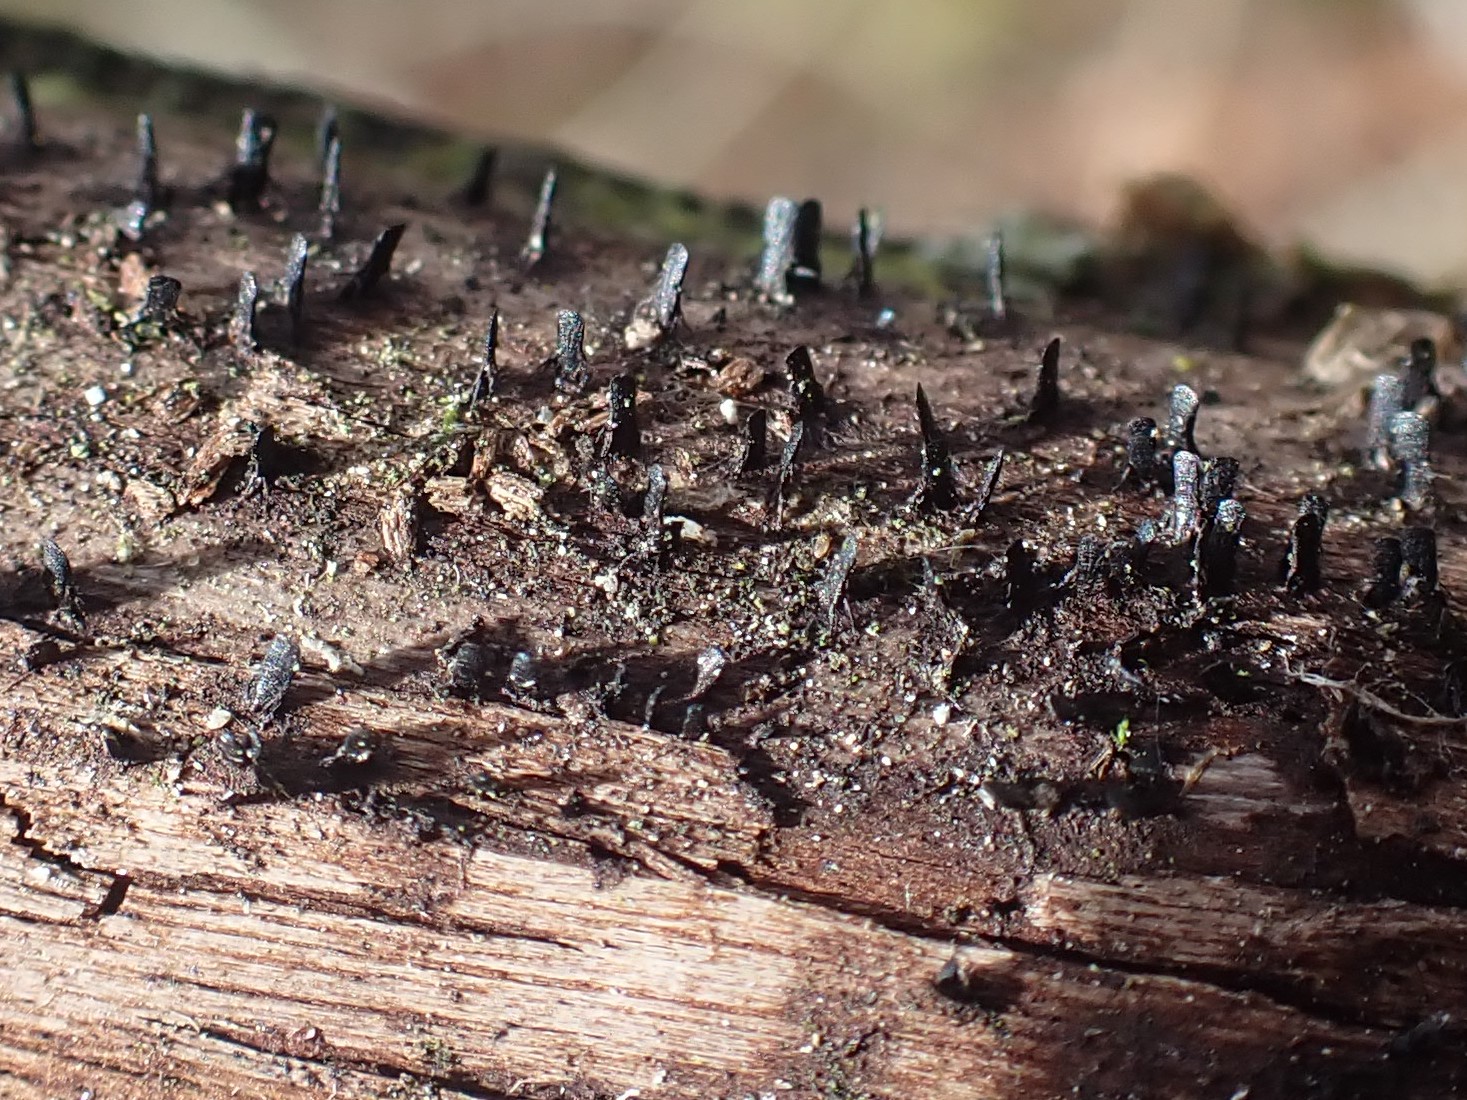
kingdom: Fungi
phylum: Ascomycota
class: Eurotiomycetes
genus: Glyphium
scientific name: Glyphium elatum
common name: kuløkse
